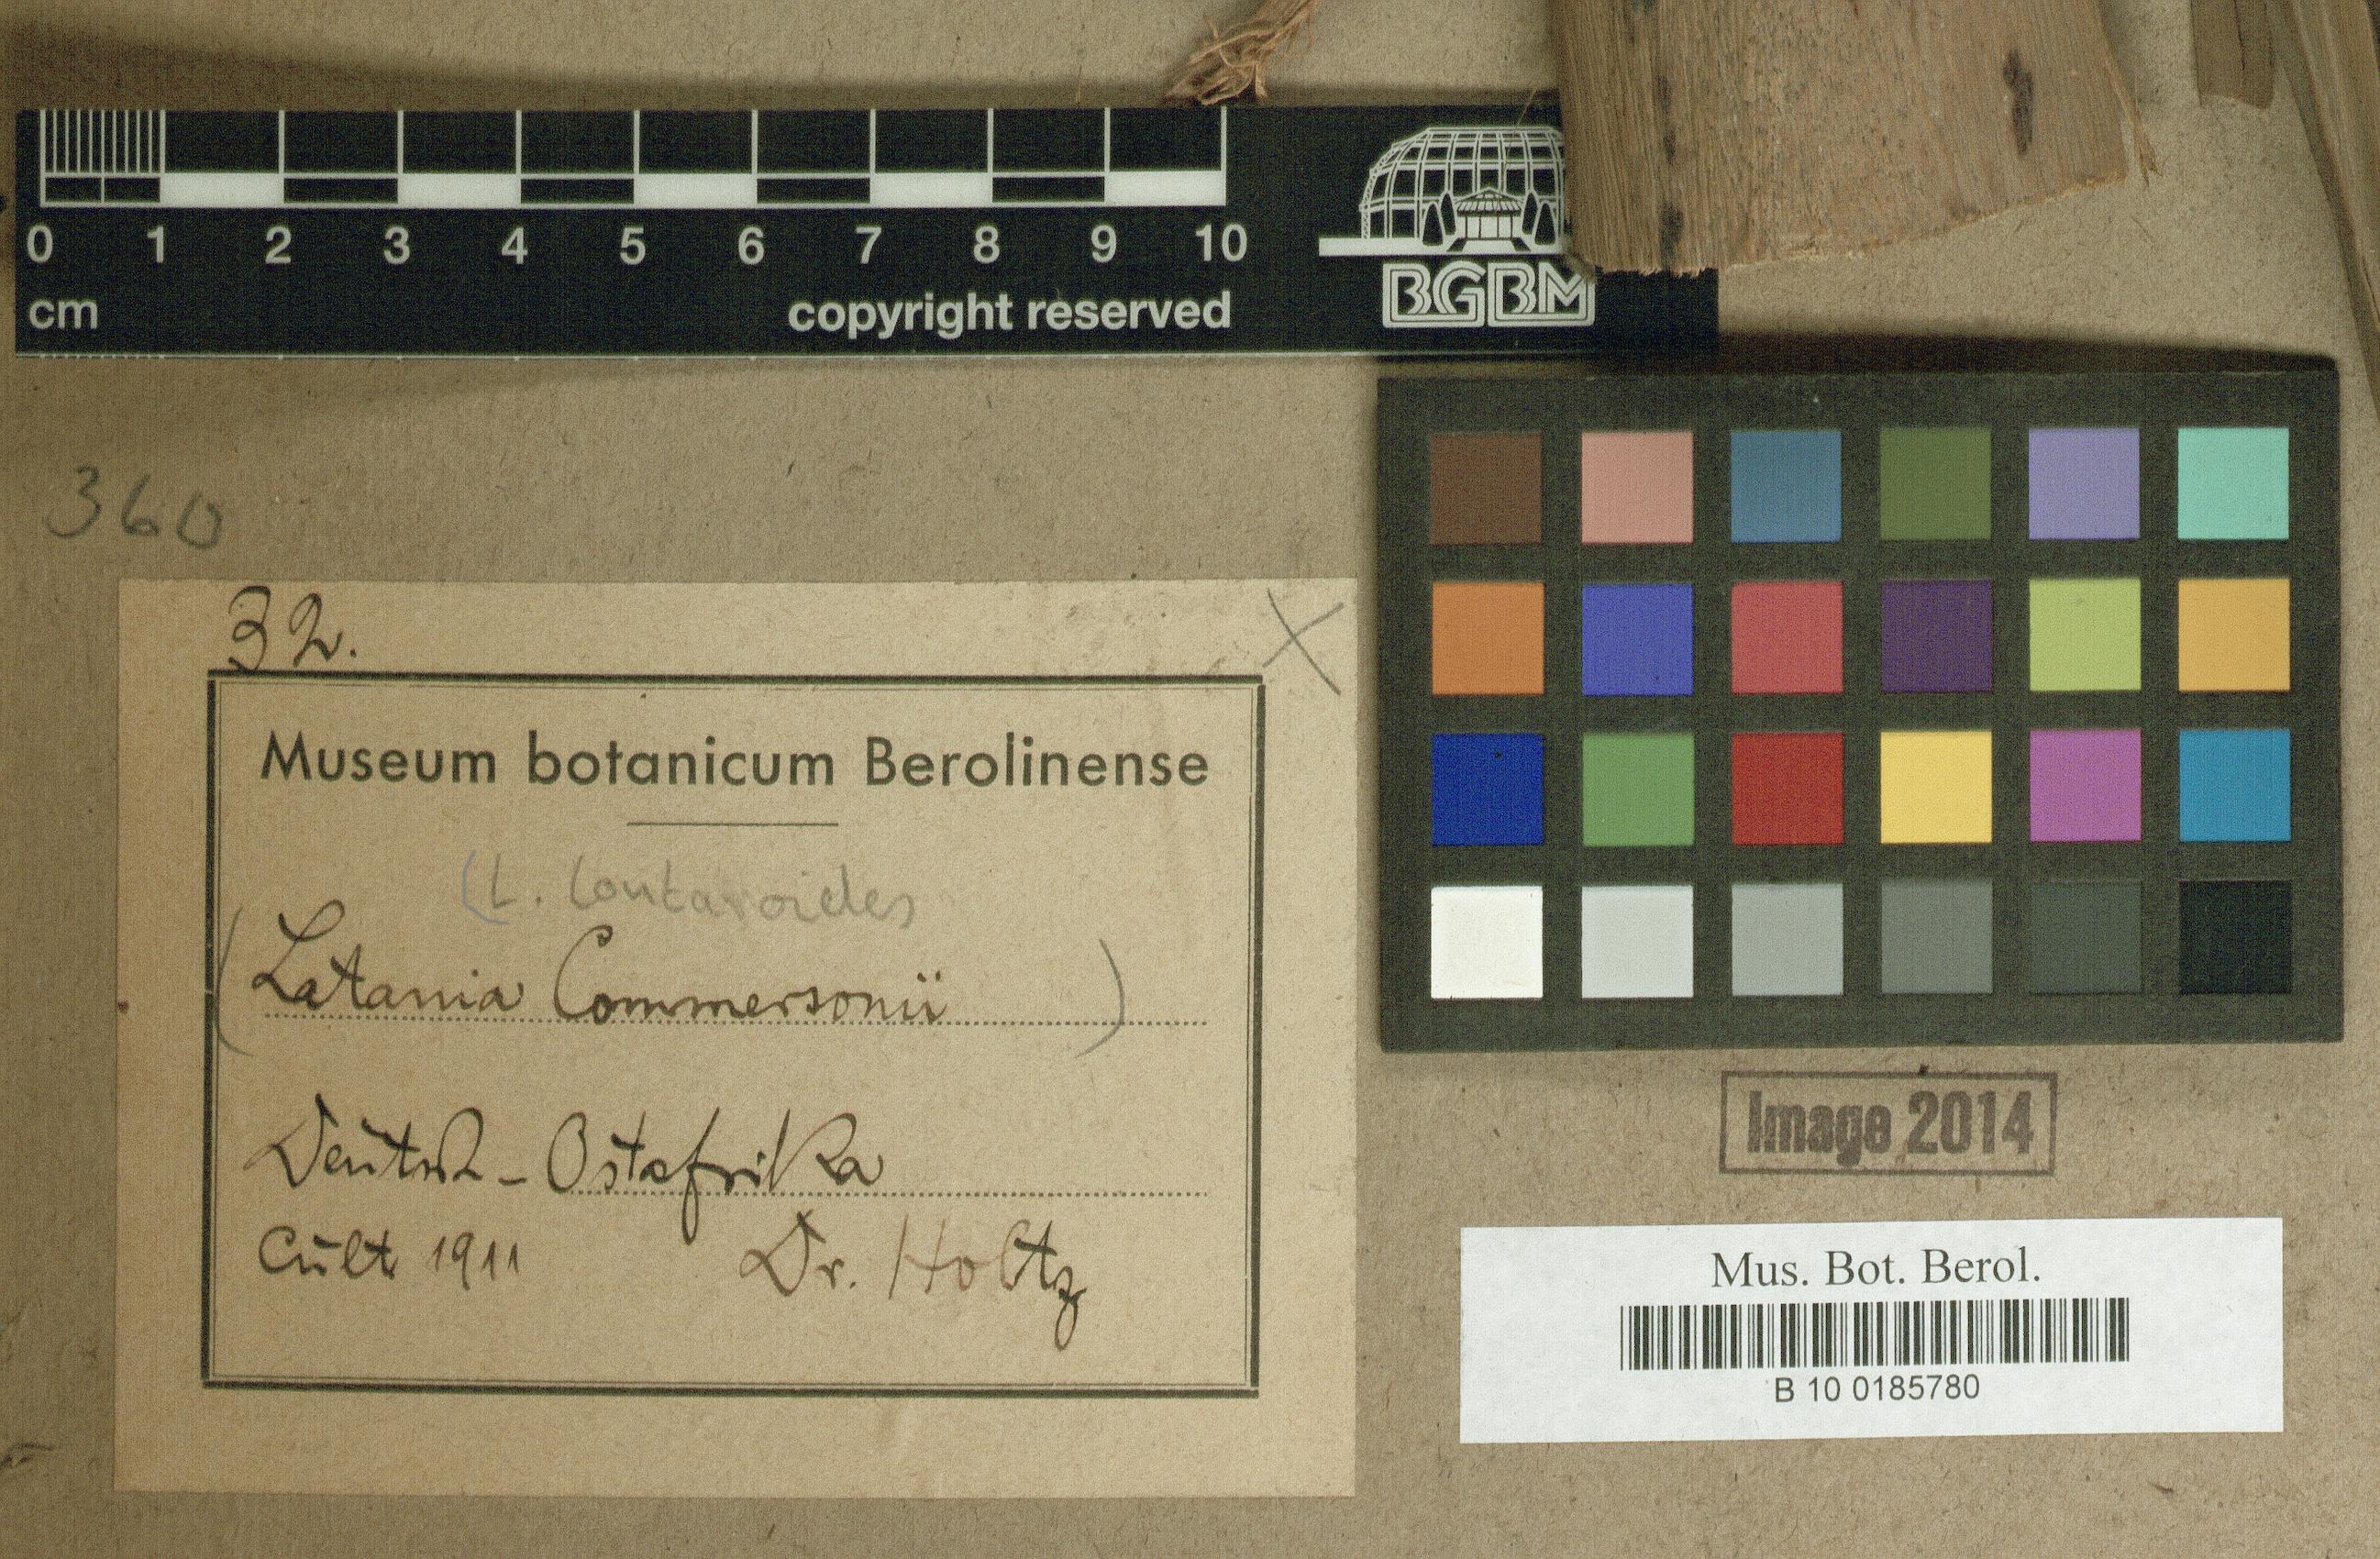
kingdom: Plantae
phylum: Tracheophyta
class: Liliopsida
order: Arecales
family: Arecaceae
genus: Latania
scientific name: Latania lontaroides
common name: Red latan
